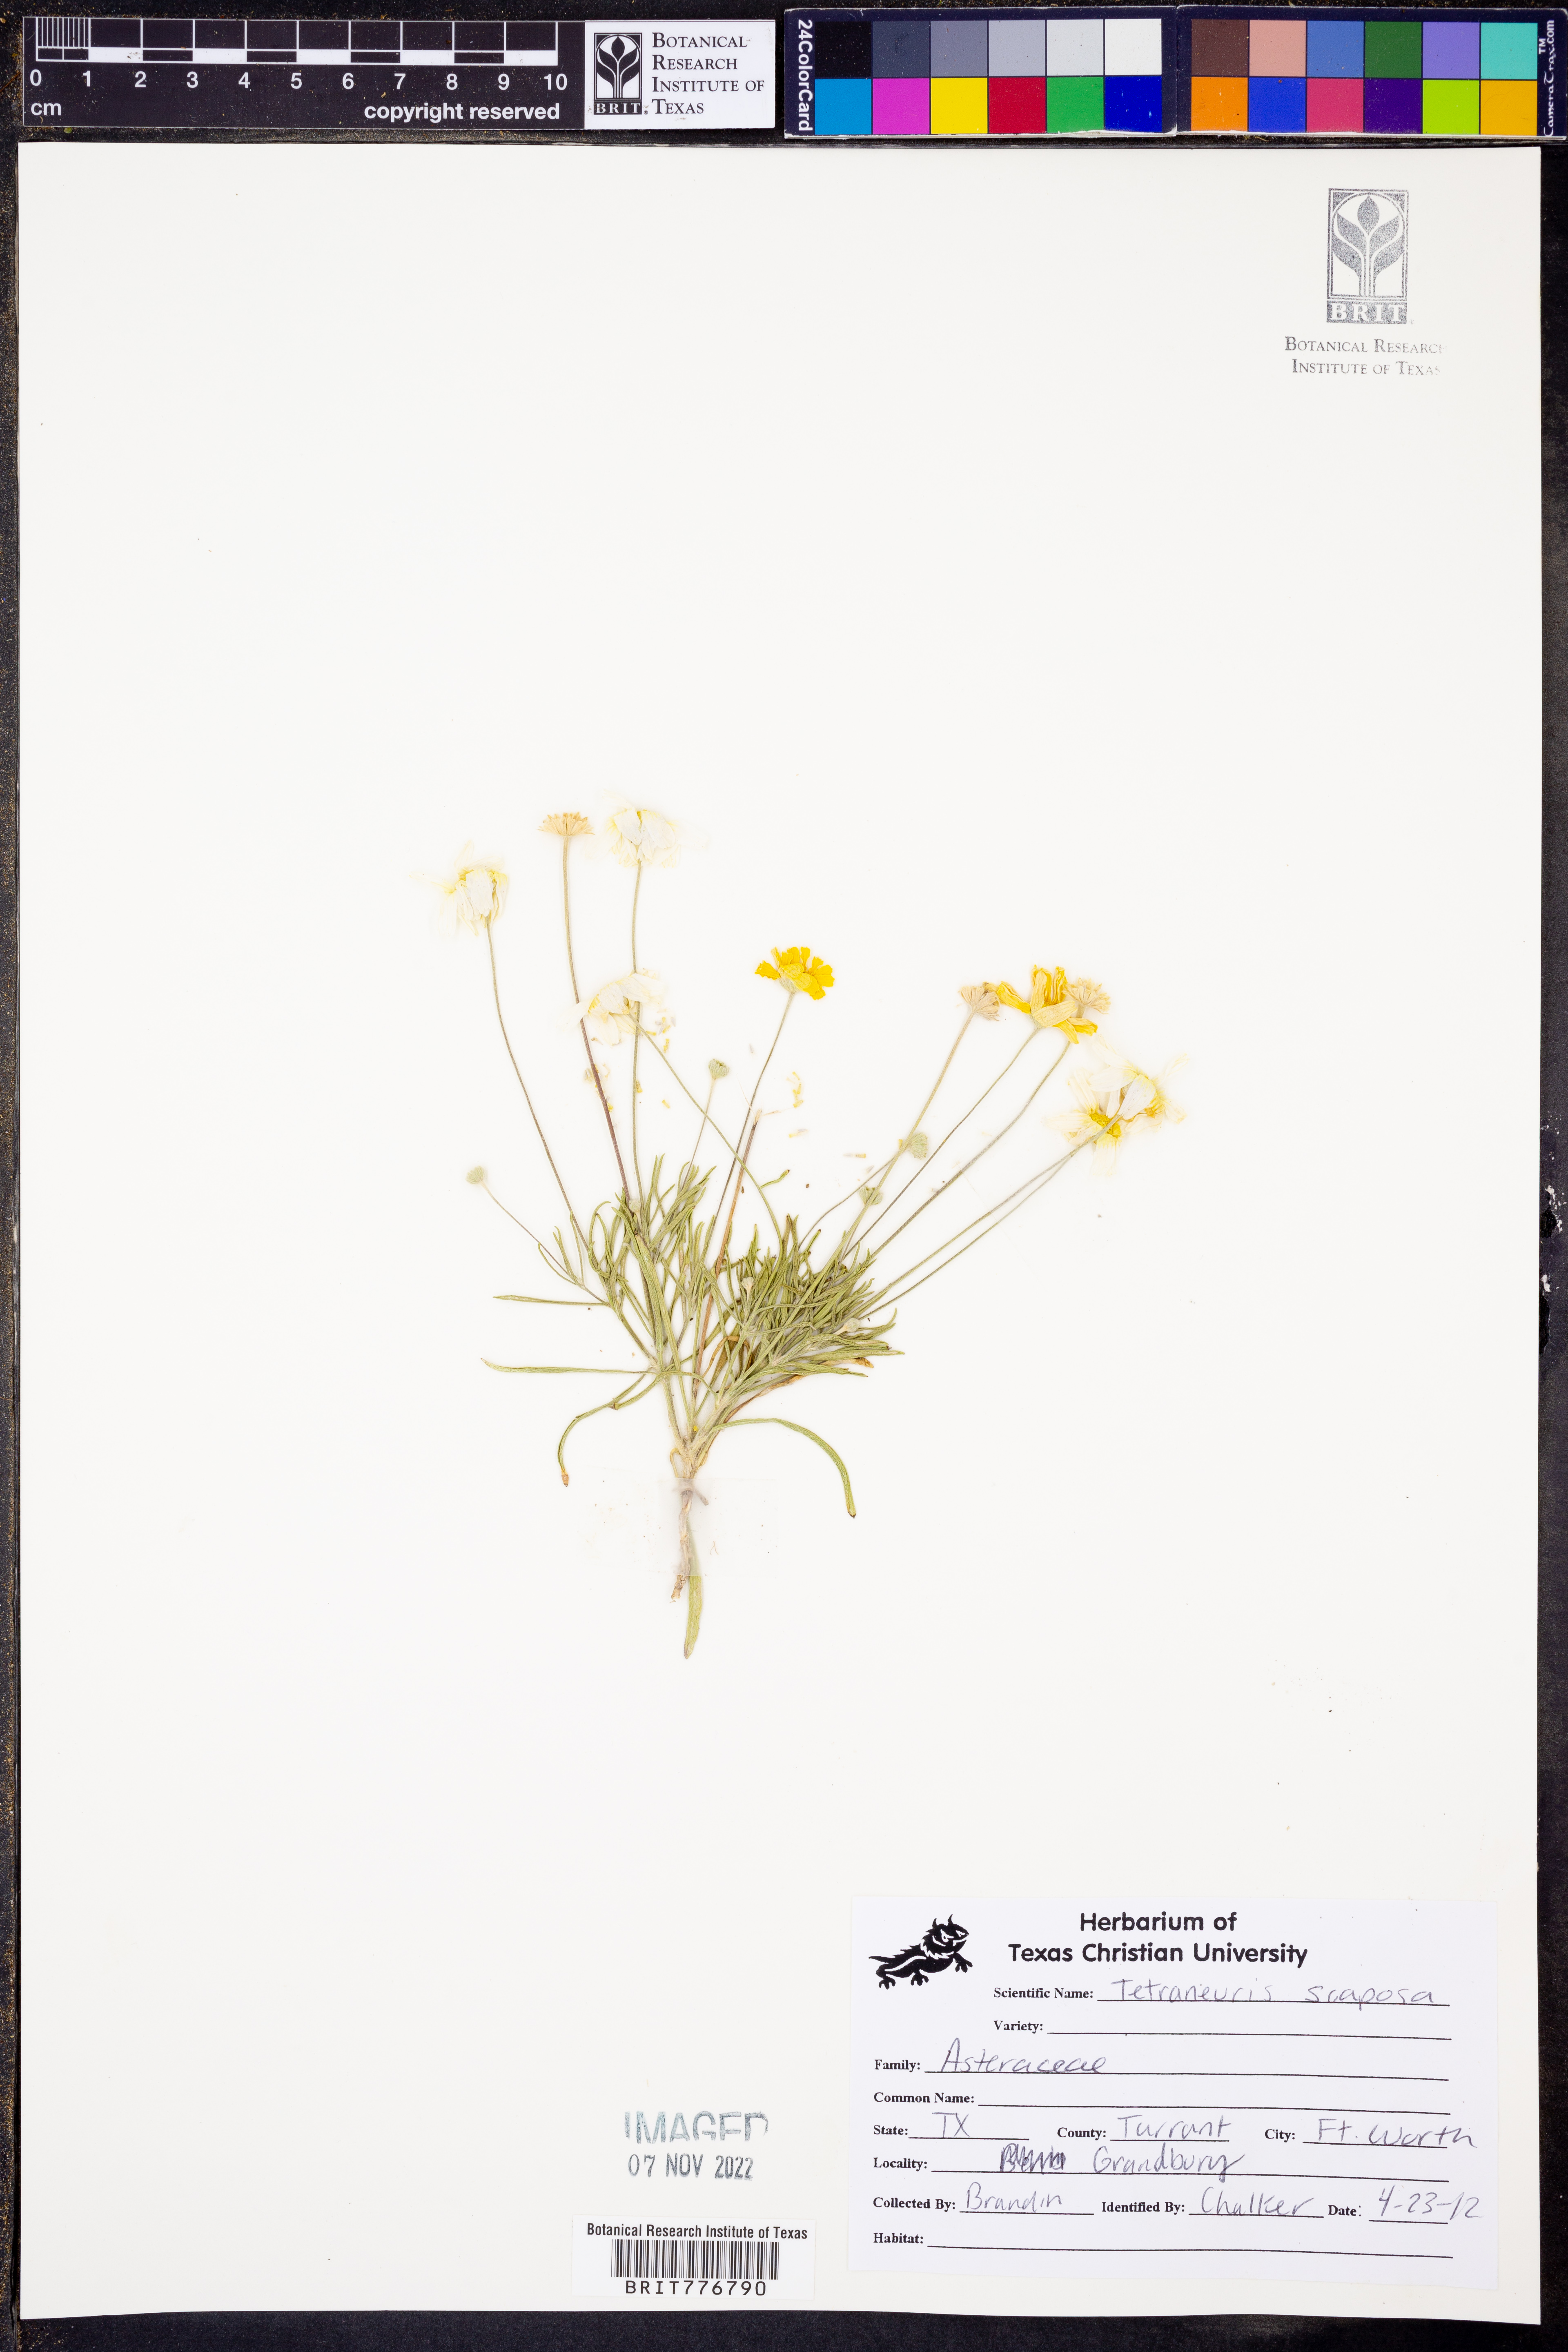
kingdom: Plantae
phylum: Tracheophyta
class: Magnoliopsida
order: Asterales
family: Asteraceae
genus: Tetraneuris
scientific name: Tetraneuris scaposa
